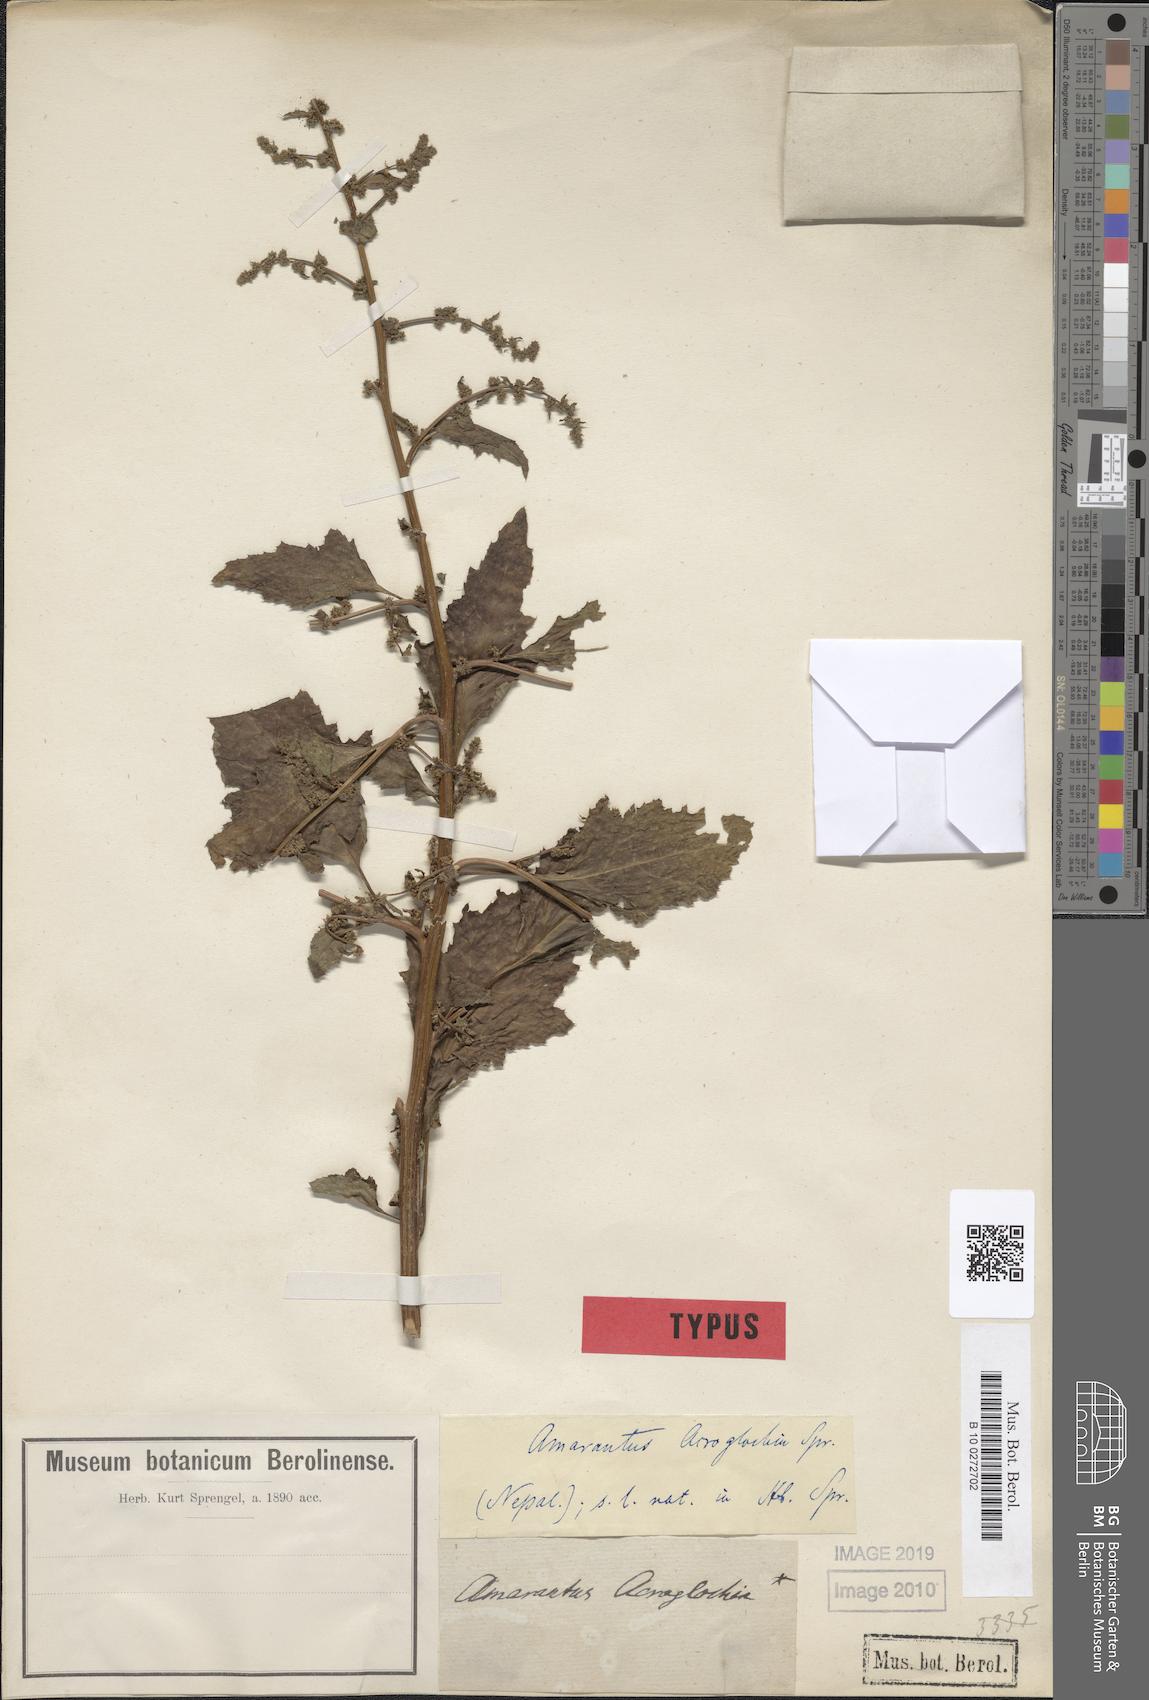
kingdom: Plantae
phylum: Tracheophyta
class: Magnoliopsida
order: Caryophyllales
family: Amaranthaceae
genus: Acroglochin
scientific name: Acroglochin persicarioides
